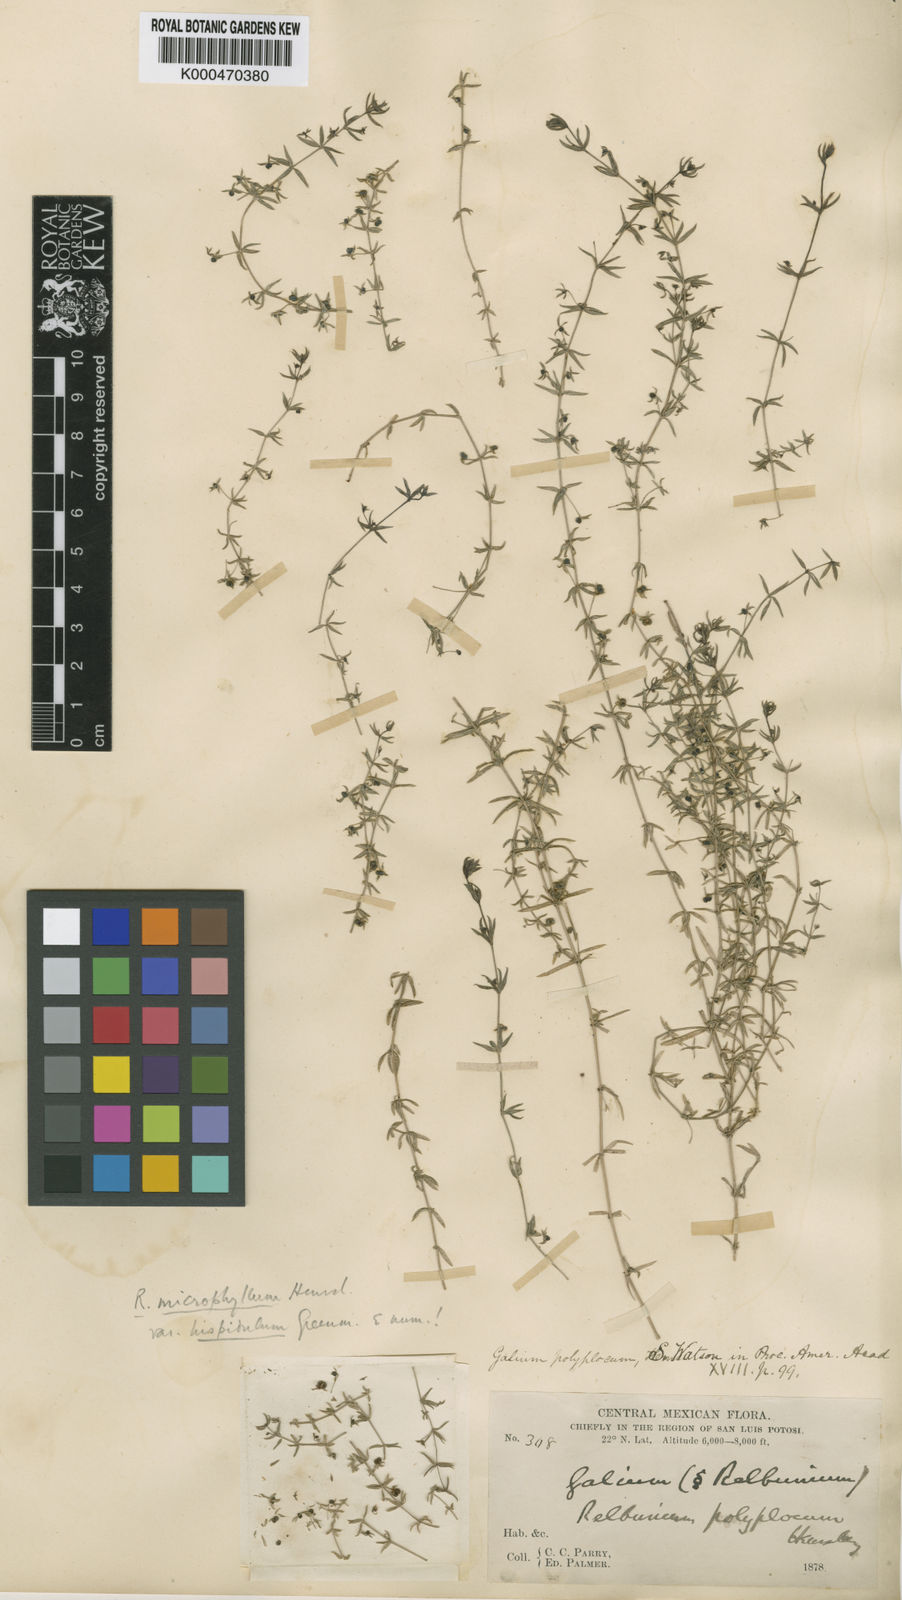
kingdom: Plantae
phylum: Tracheophyta
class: Magnoliopsida
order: Gentianales
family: Rubiaceae
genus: Galium
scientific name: Galium microphyllum
